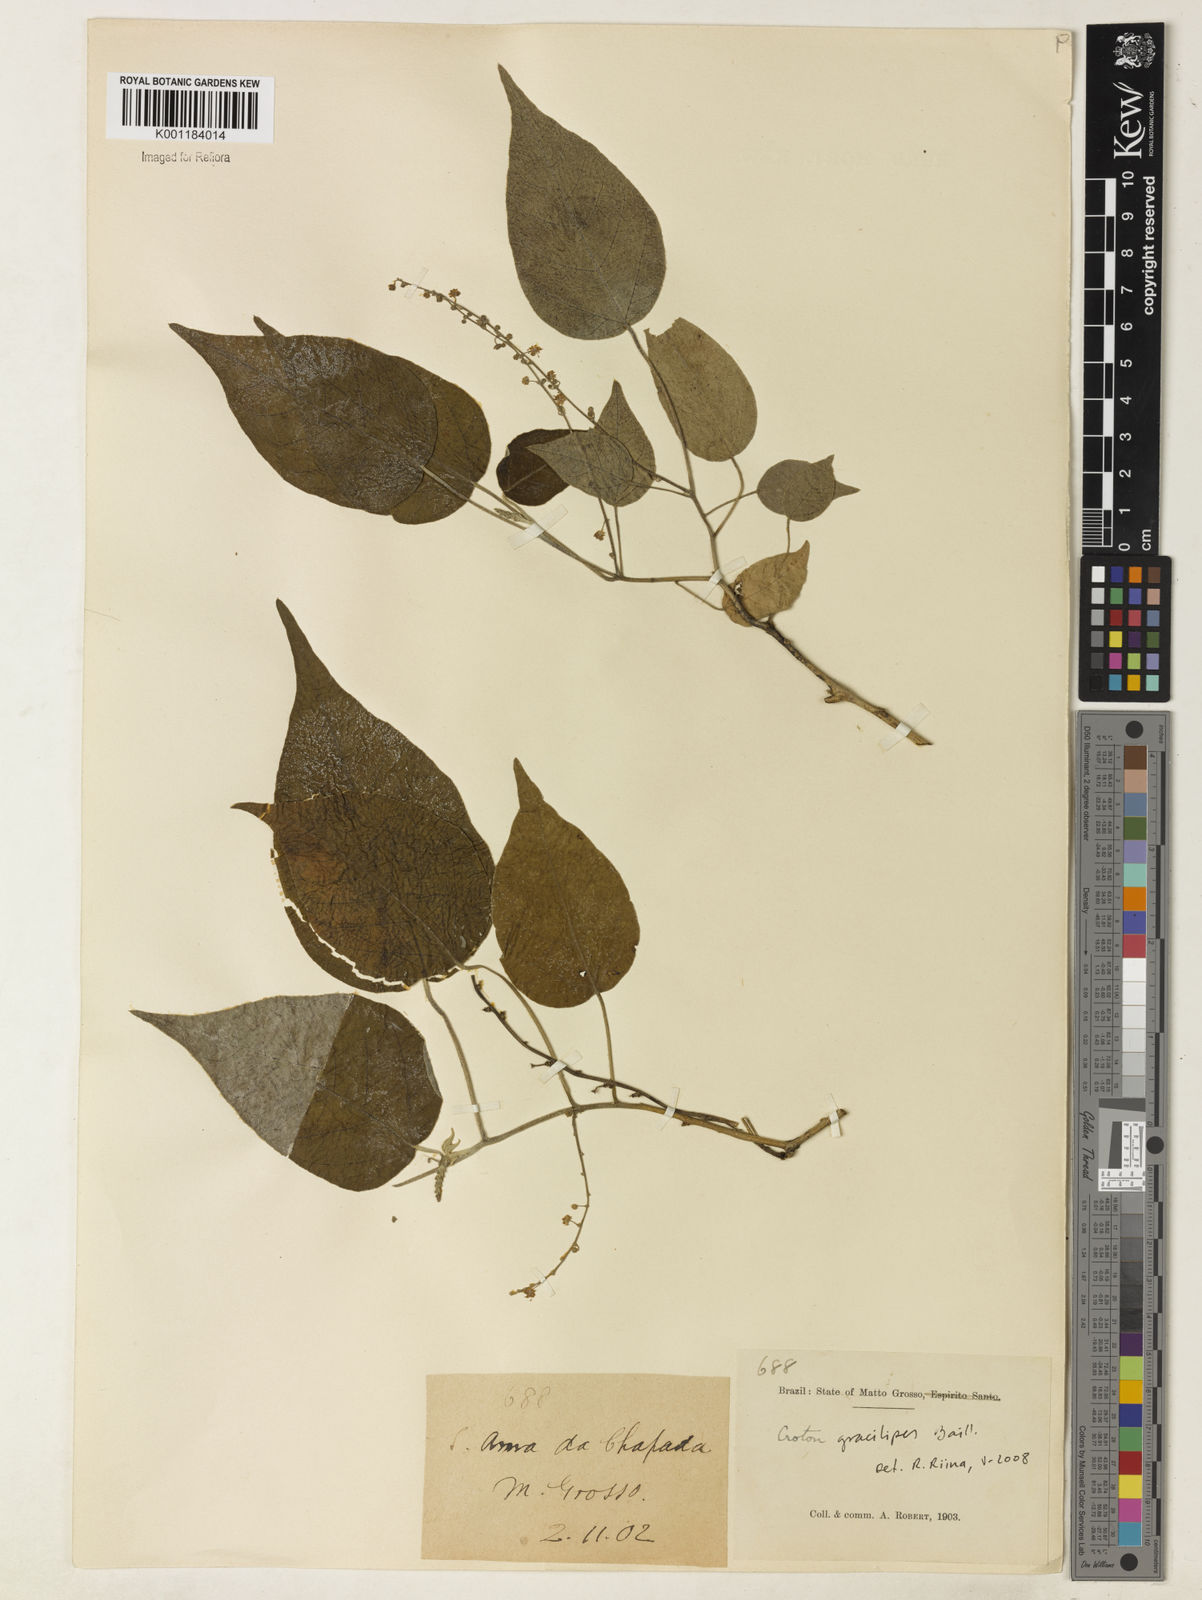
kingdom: Plantae
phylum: Tracheophyta
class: Magnoliopsida
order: Malpighiales
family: Euphorbiaceae
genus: Croton
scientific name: Croton gracilipes
